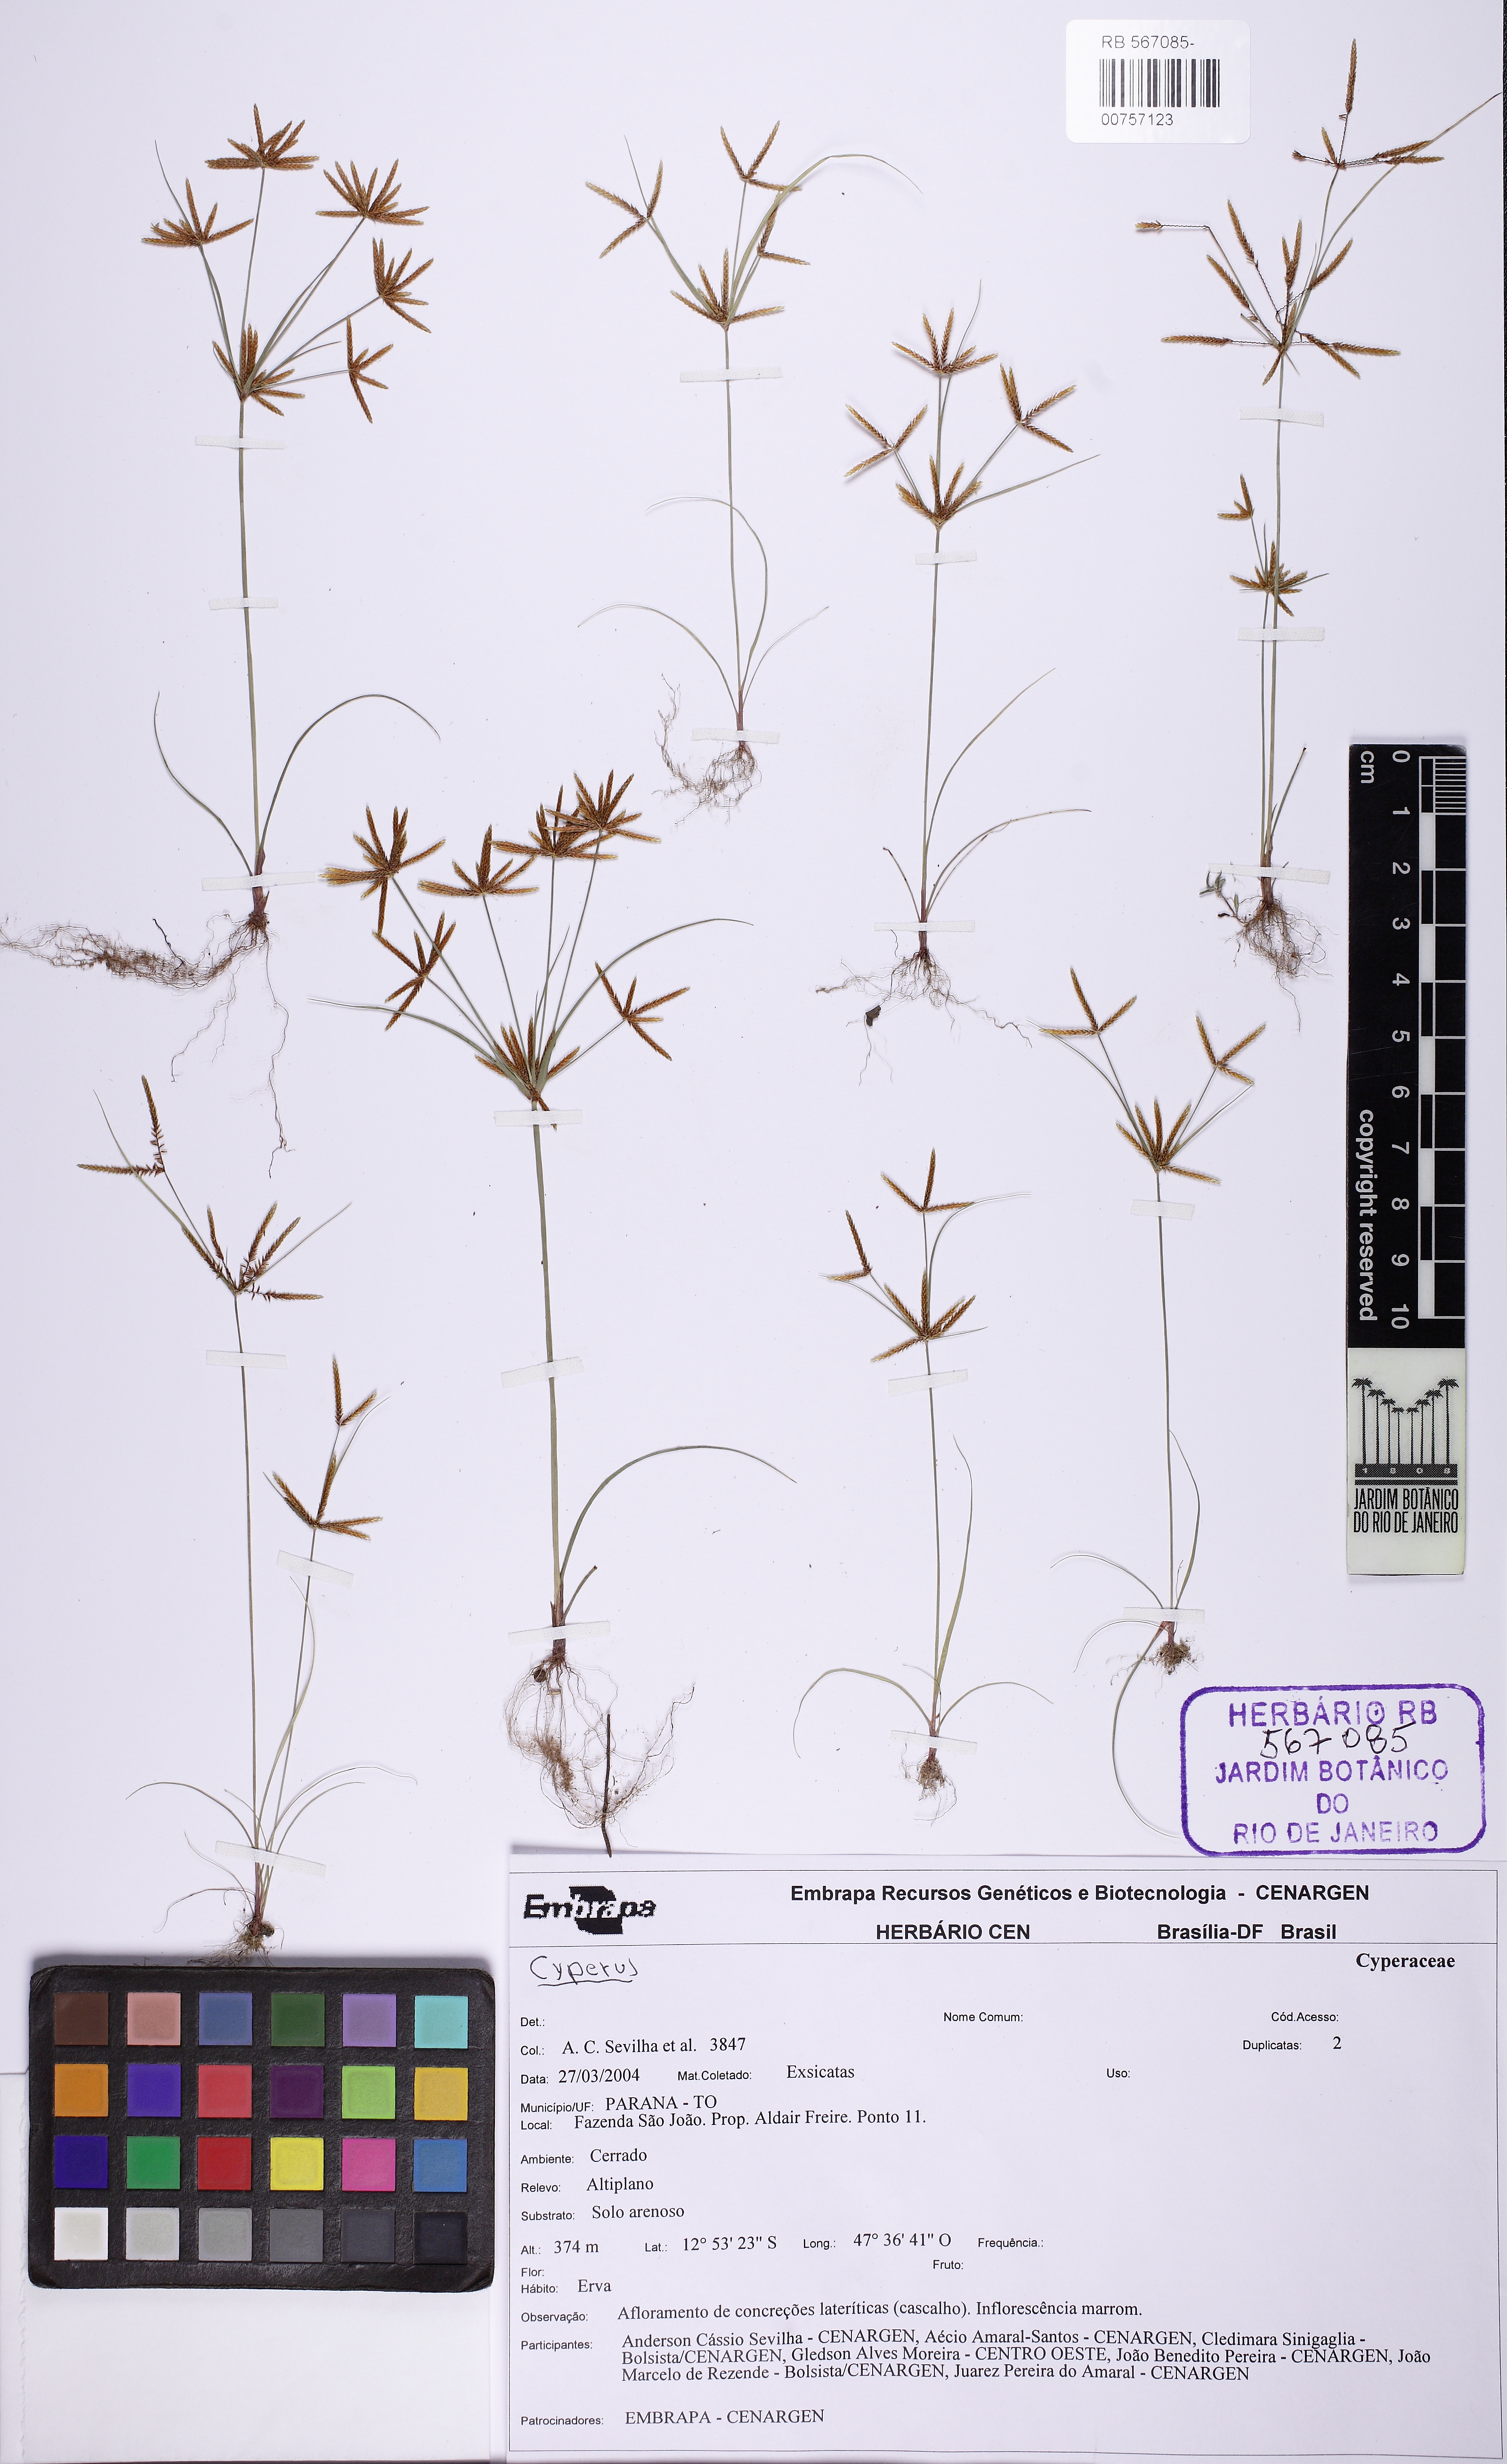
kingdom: Plantae
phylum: Tracheophyta
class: Liliopsida
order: Poales
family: Cyperaceae
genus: Cyperus
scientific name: Cyperus amabilis
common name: Foothill flat sedge
